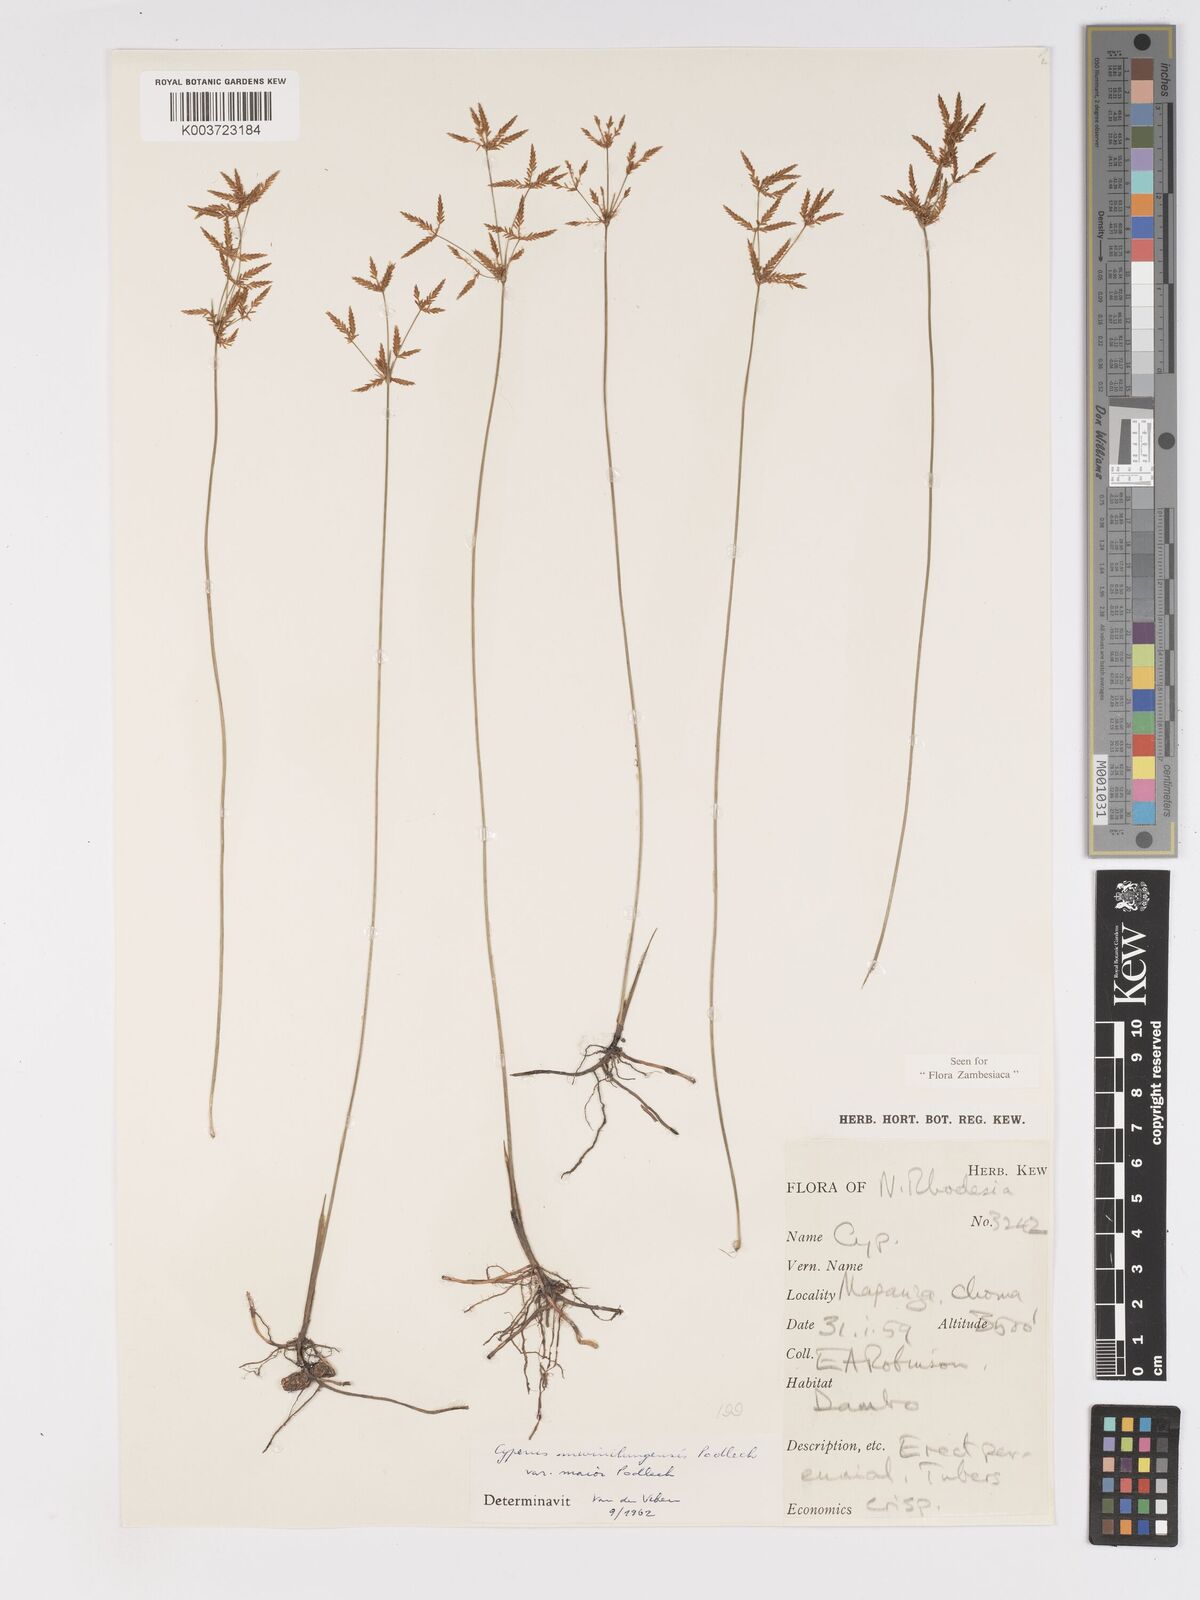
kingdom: Plantae
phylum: Tracheophyta
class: Liliopsida
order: Poales
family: Cyperaceae
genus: Cyperus
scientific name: Cyperus mwinilungensis
